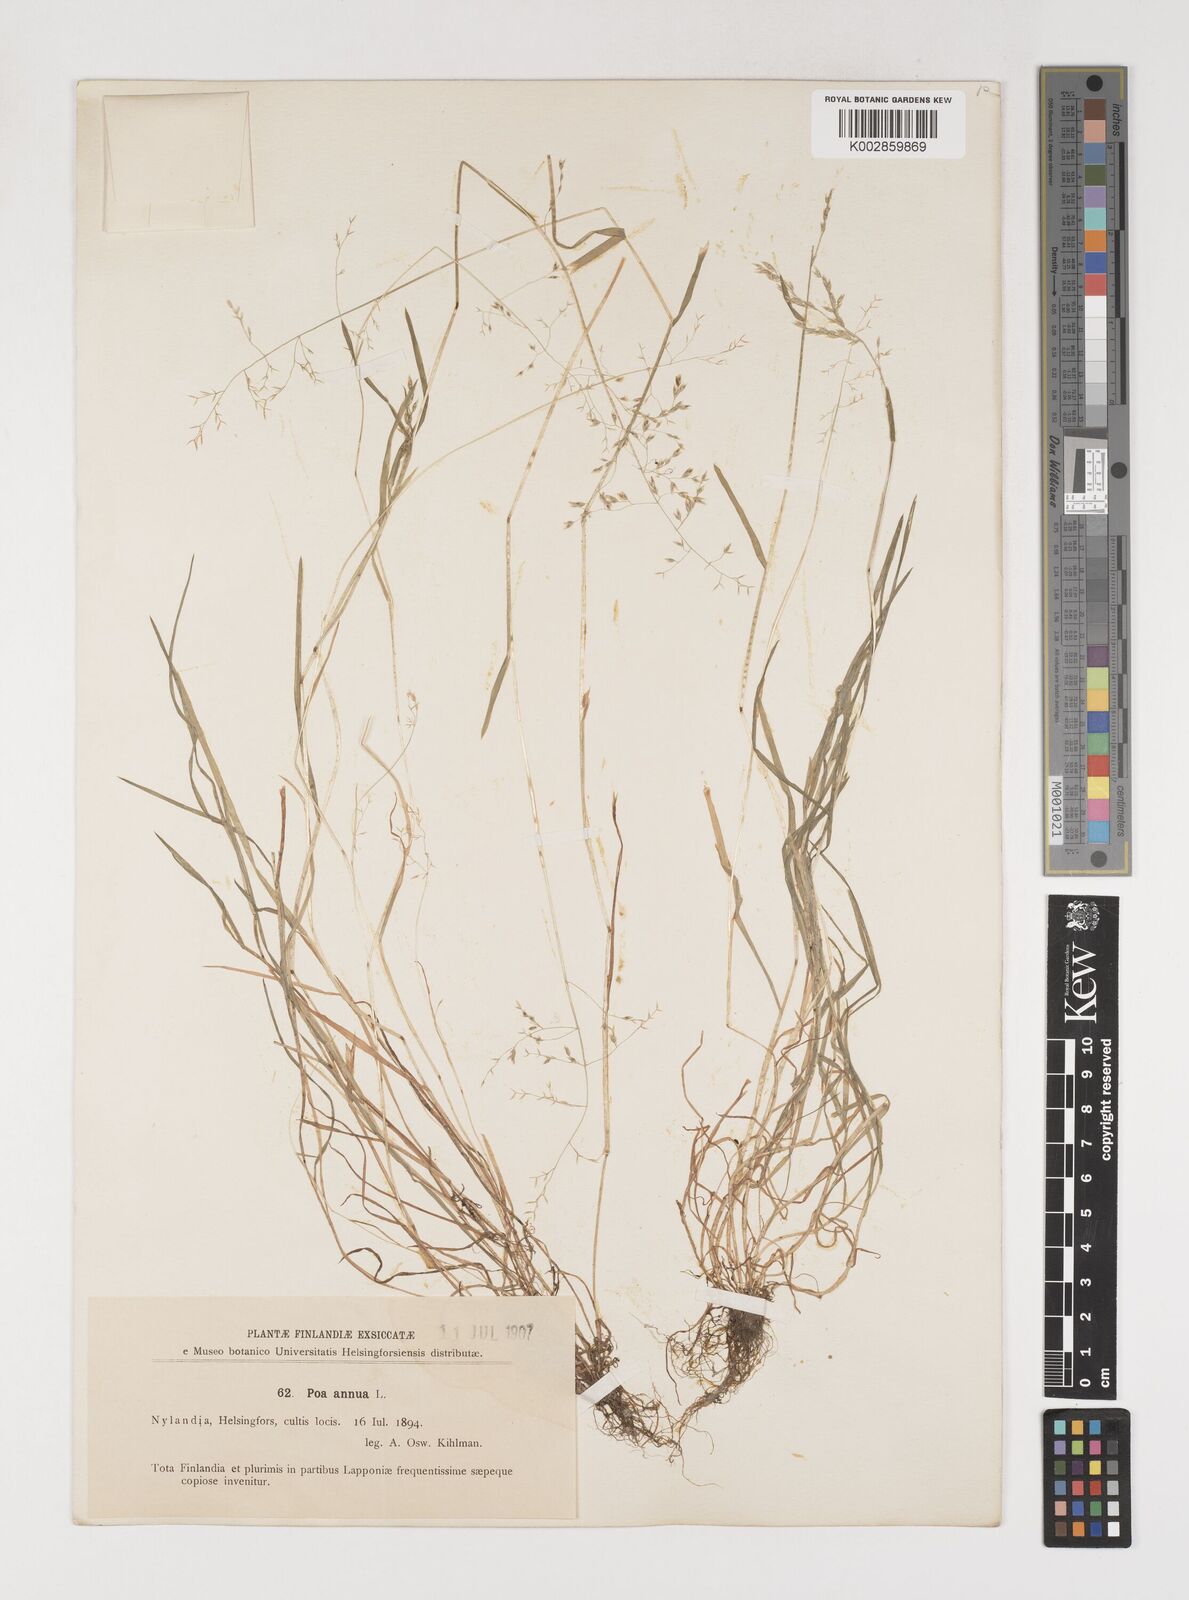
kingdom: Plantae
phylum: Tracheophyta
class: Liliopsida
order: Poales
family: Poaceae
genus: Poa
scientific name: Poa annua
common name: Annual bluegrass
